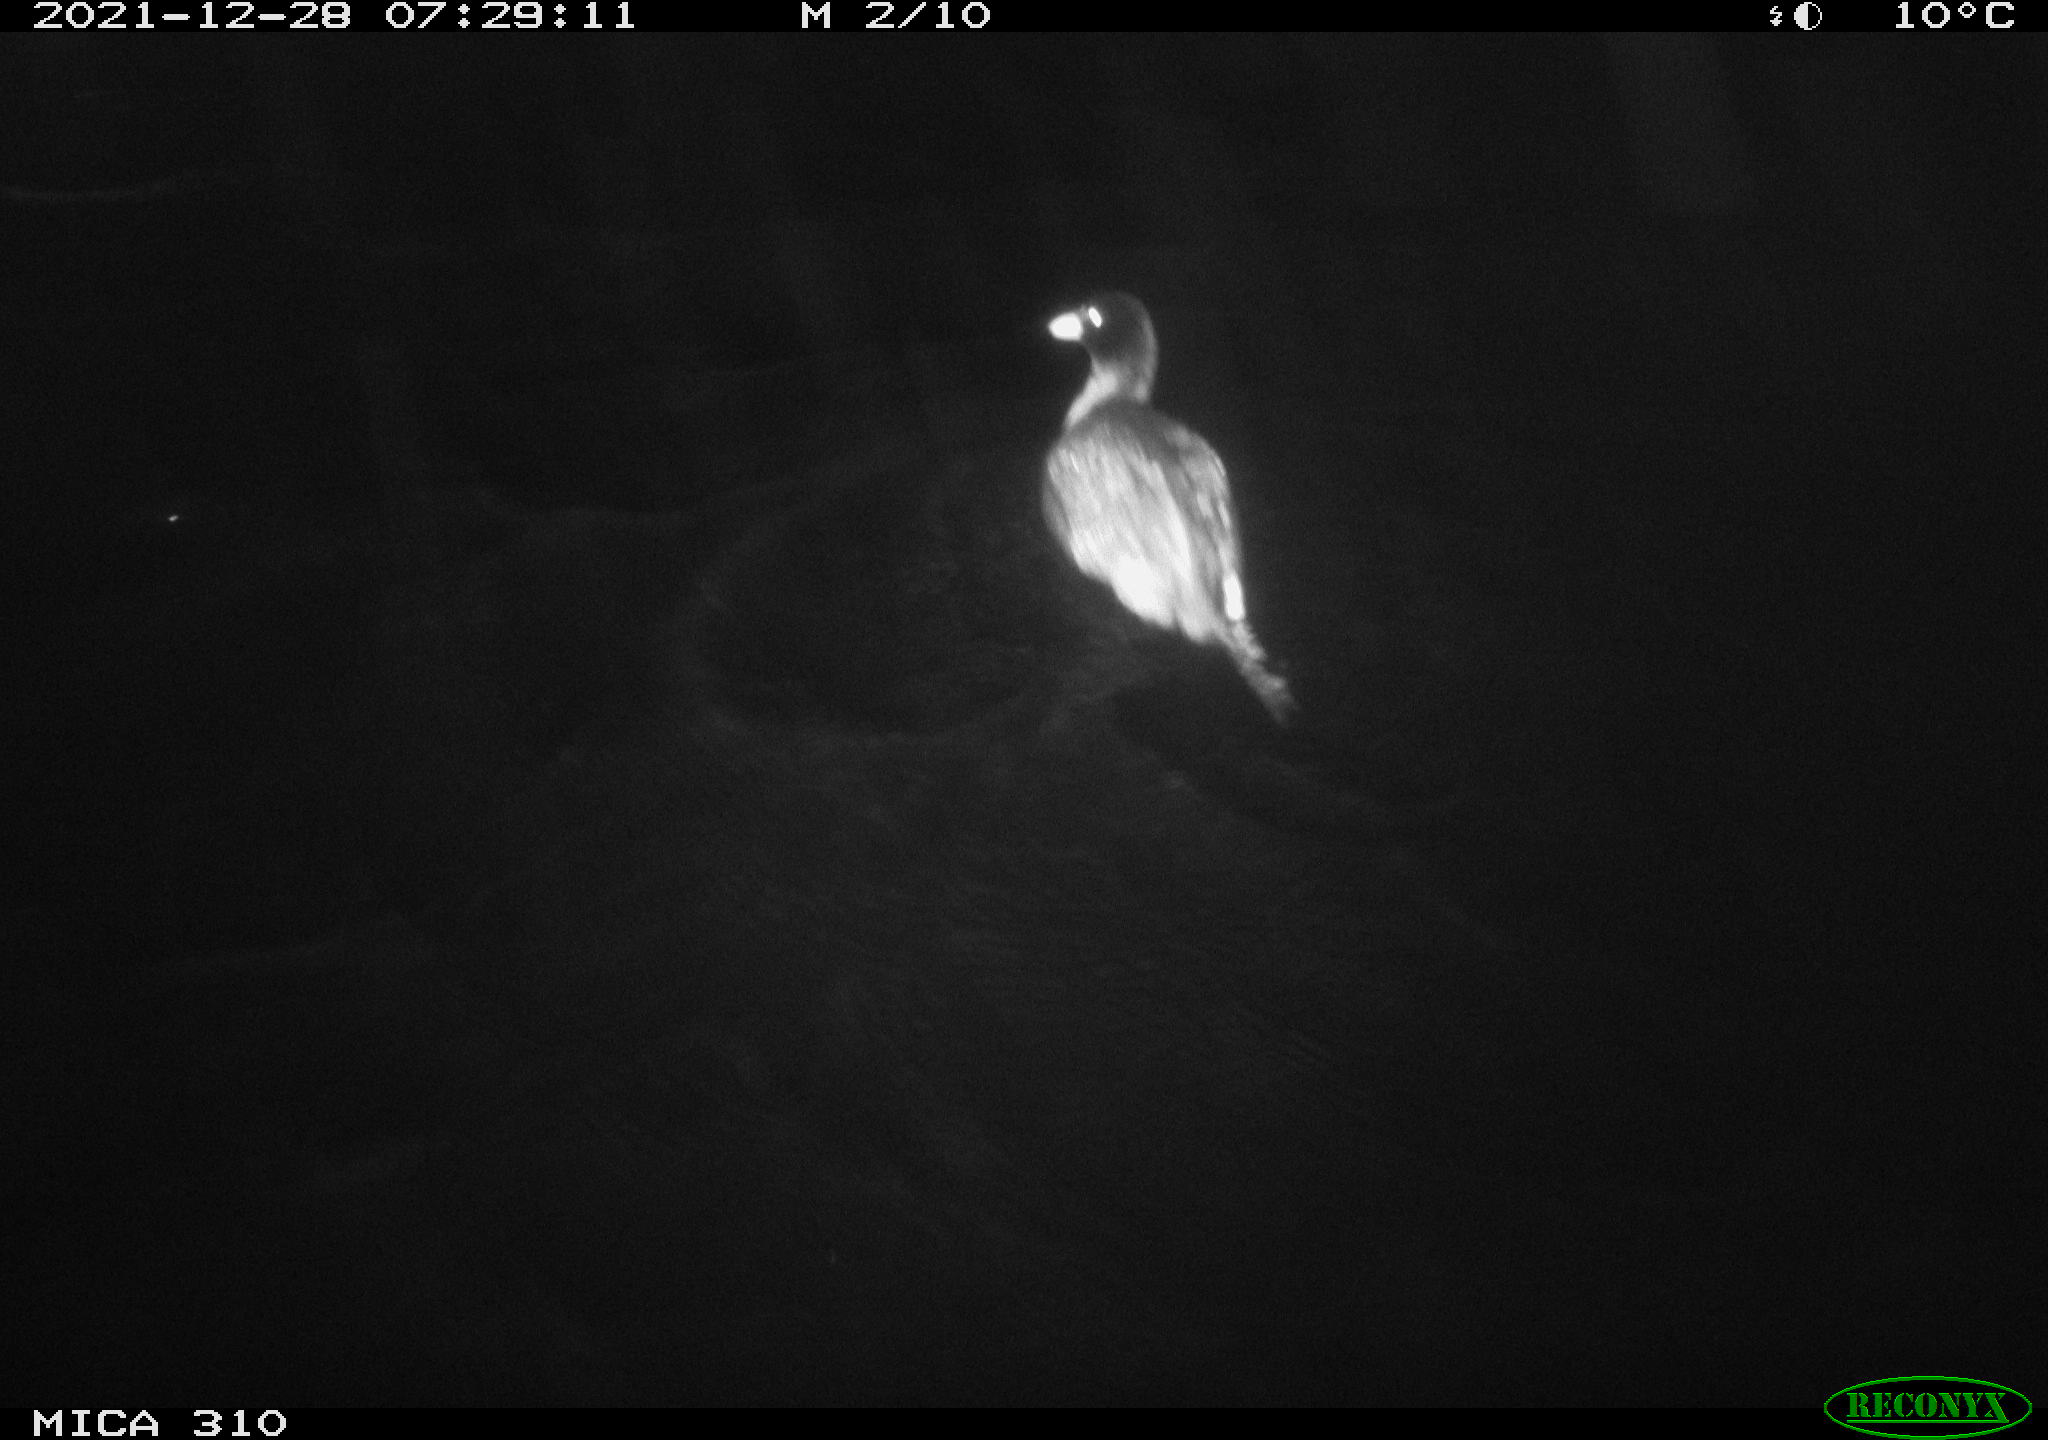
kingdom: Animalia
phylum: Chordata
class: Aves
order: Gruiformes
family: Rallidae
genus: Fulica
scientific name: Fulica atra
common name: Eurasian coot
